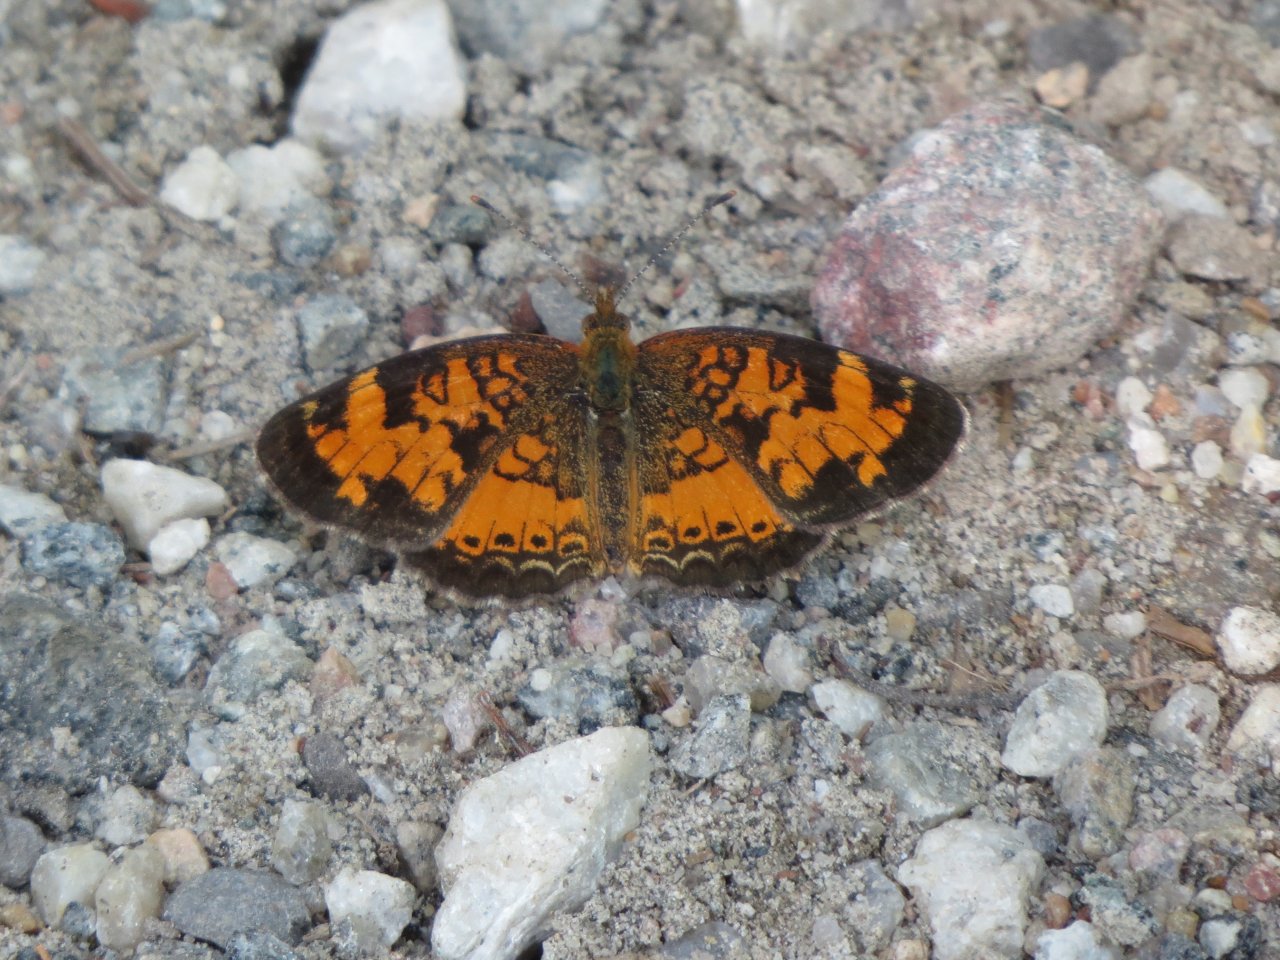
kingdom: Animalia
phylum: Arthropoda
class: Insecta
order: Lepidoptera
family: Nymphalidae
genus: Phyciodes
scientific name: Phyciodes tharos
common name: Northern Crescent
